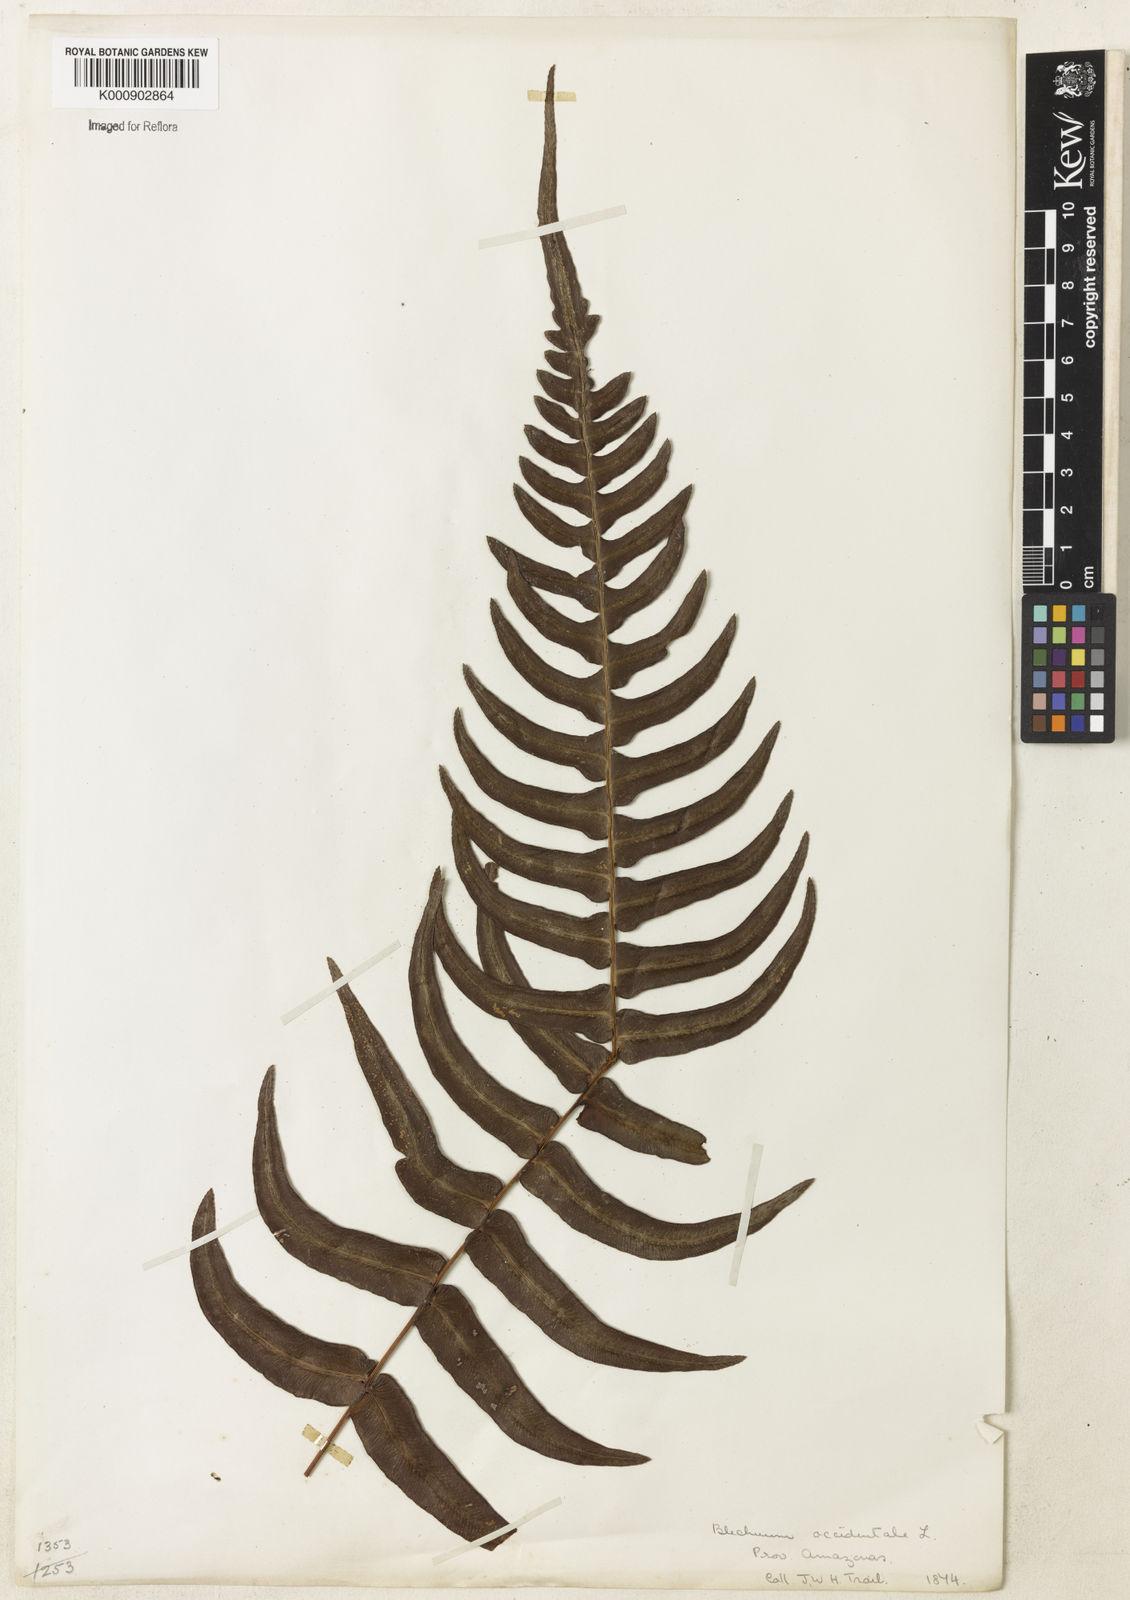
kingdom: Plantae
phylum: Tracheophyta
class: Polypodiopsida
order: Polypodiales
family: Blechnaceae
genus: Blechnum
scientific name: Blechnum occidentale
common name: Hammock fern
